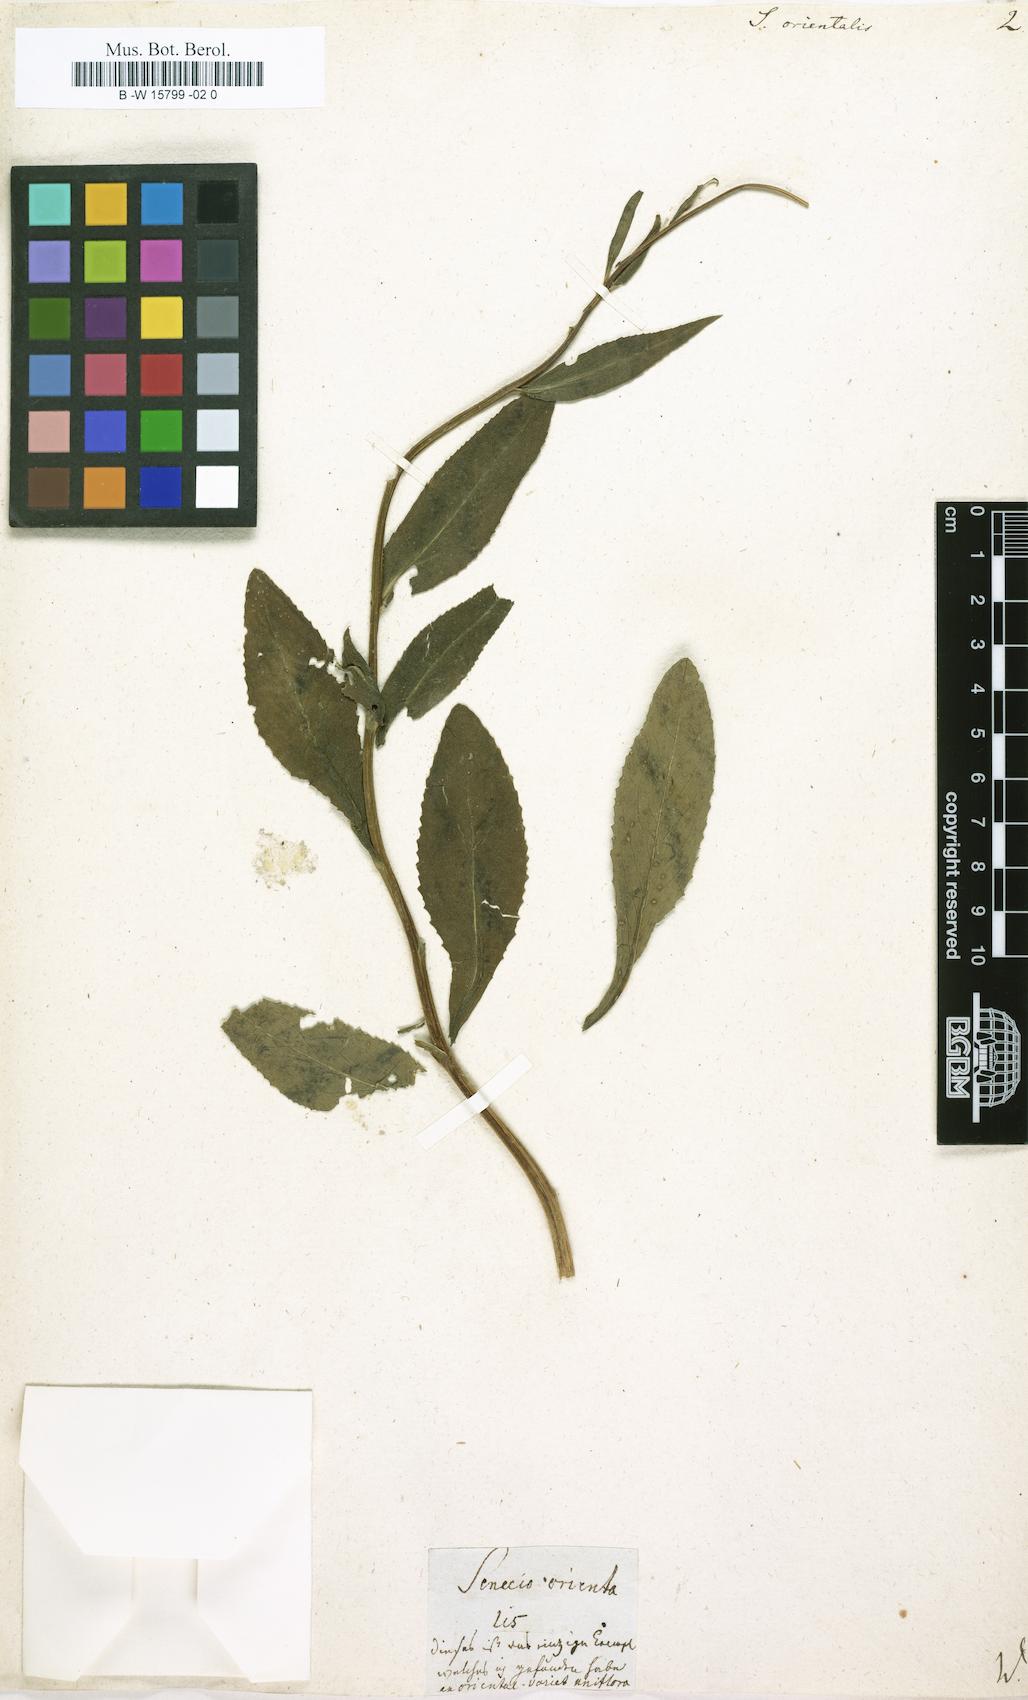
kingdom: Plantae
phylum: Tracheophyta
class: Magnoliopsida
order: Asterales
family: Asteraceae
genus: Senecio
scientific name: Senecio orientalis
